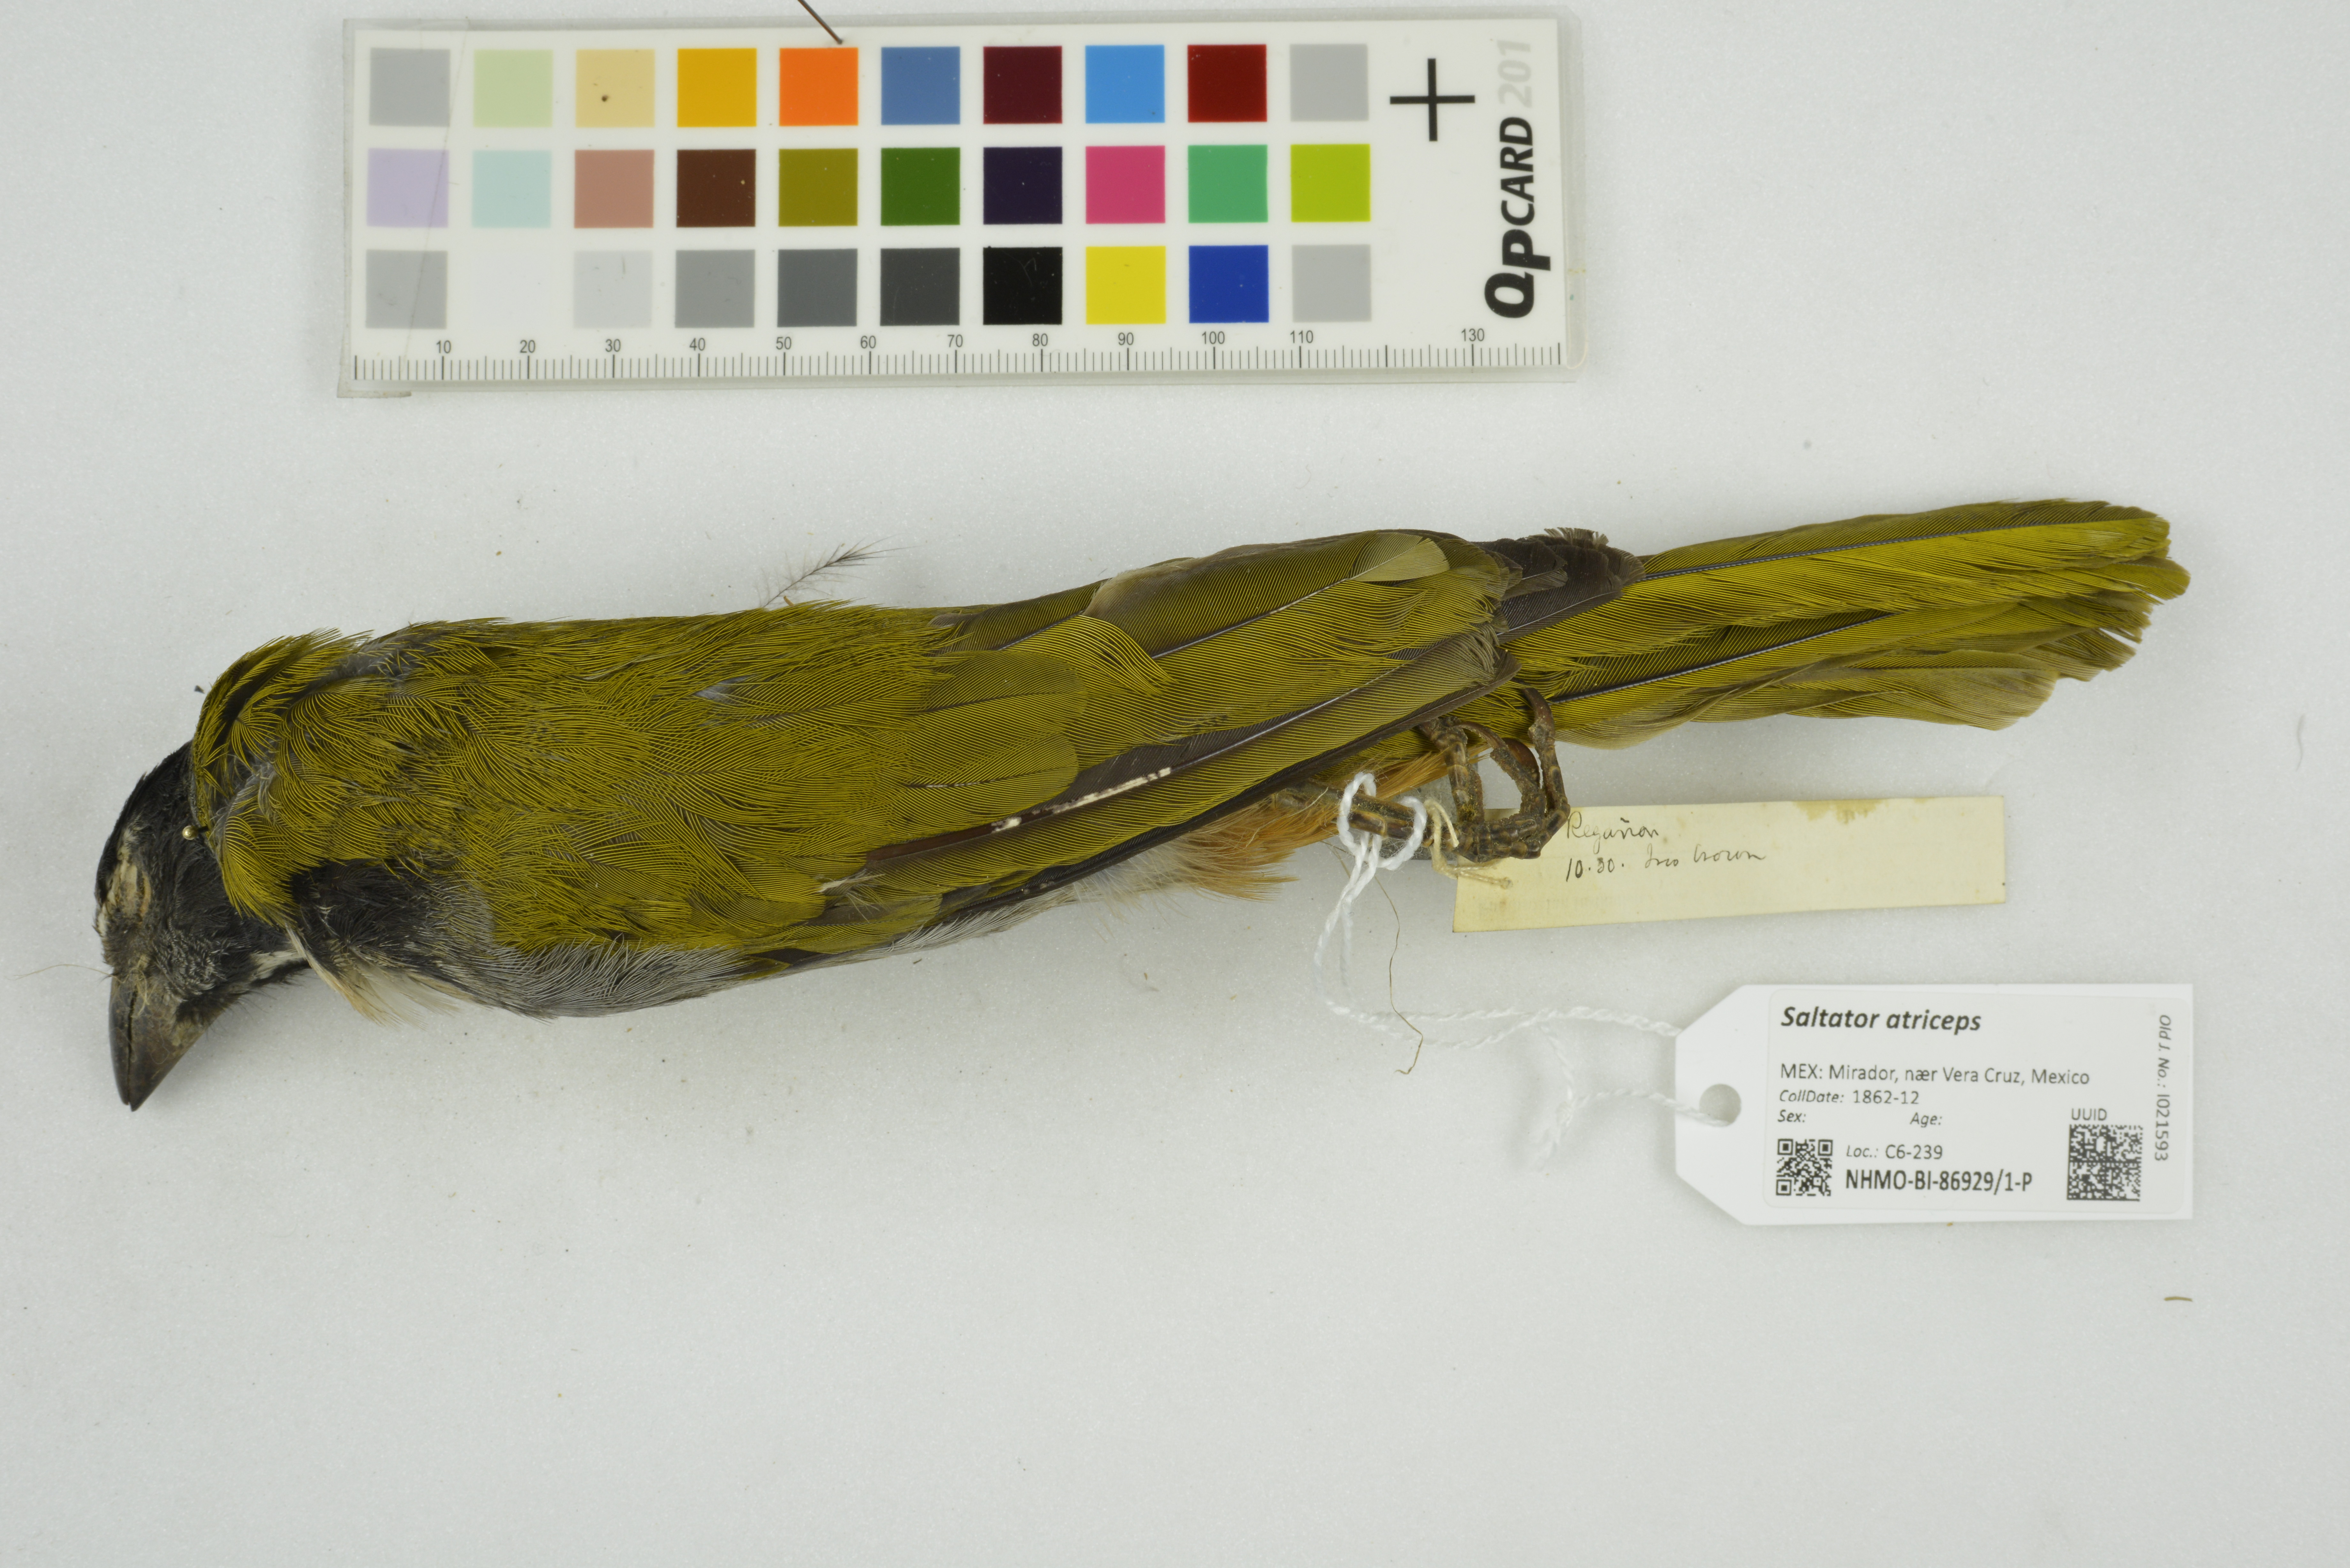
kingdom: Animalia
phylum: Chordata
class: Aves
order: Passeriformes
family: Thraupidae
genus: Saltator
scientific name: Saltator atriceps
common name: Black-headed saltator
